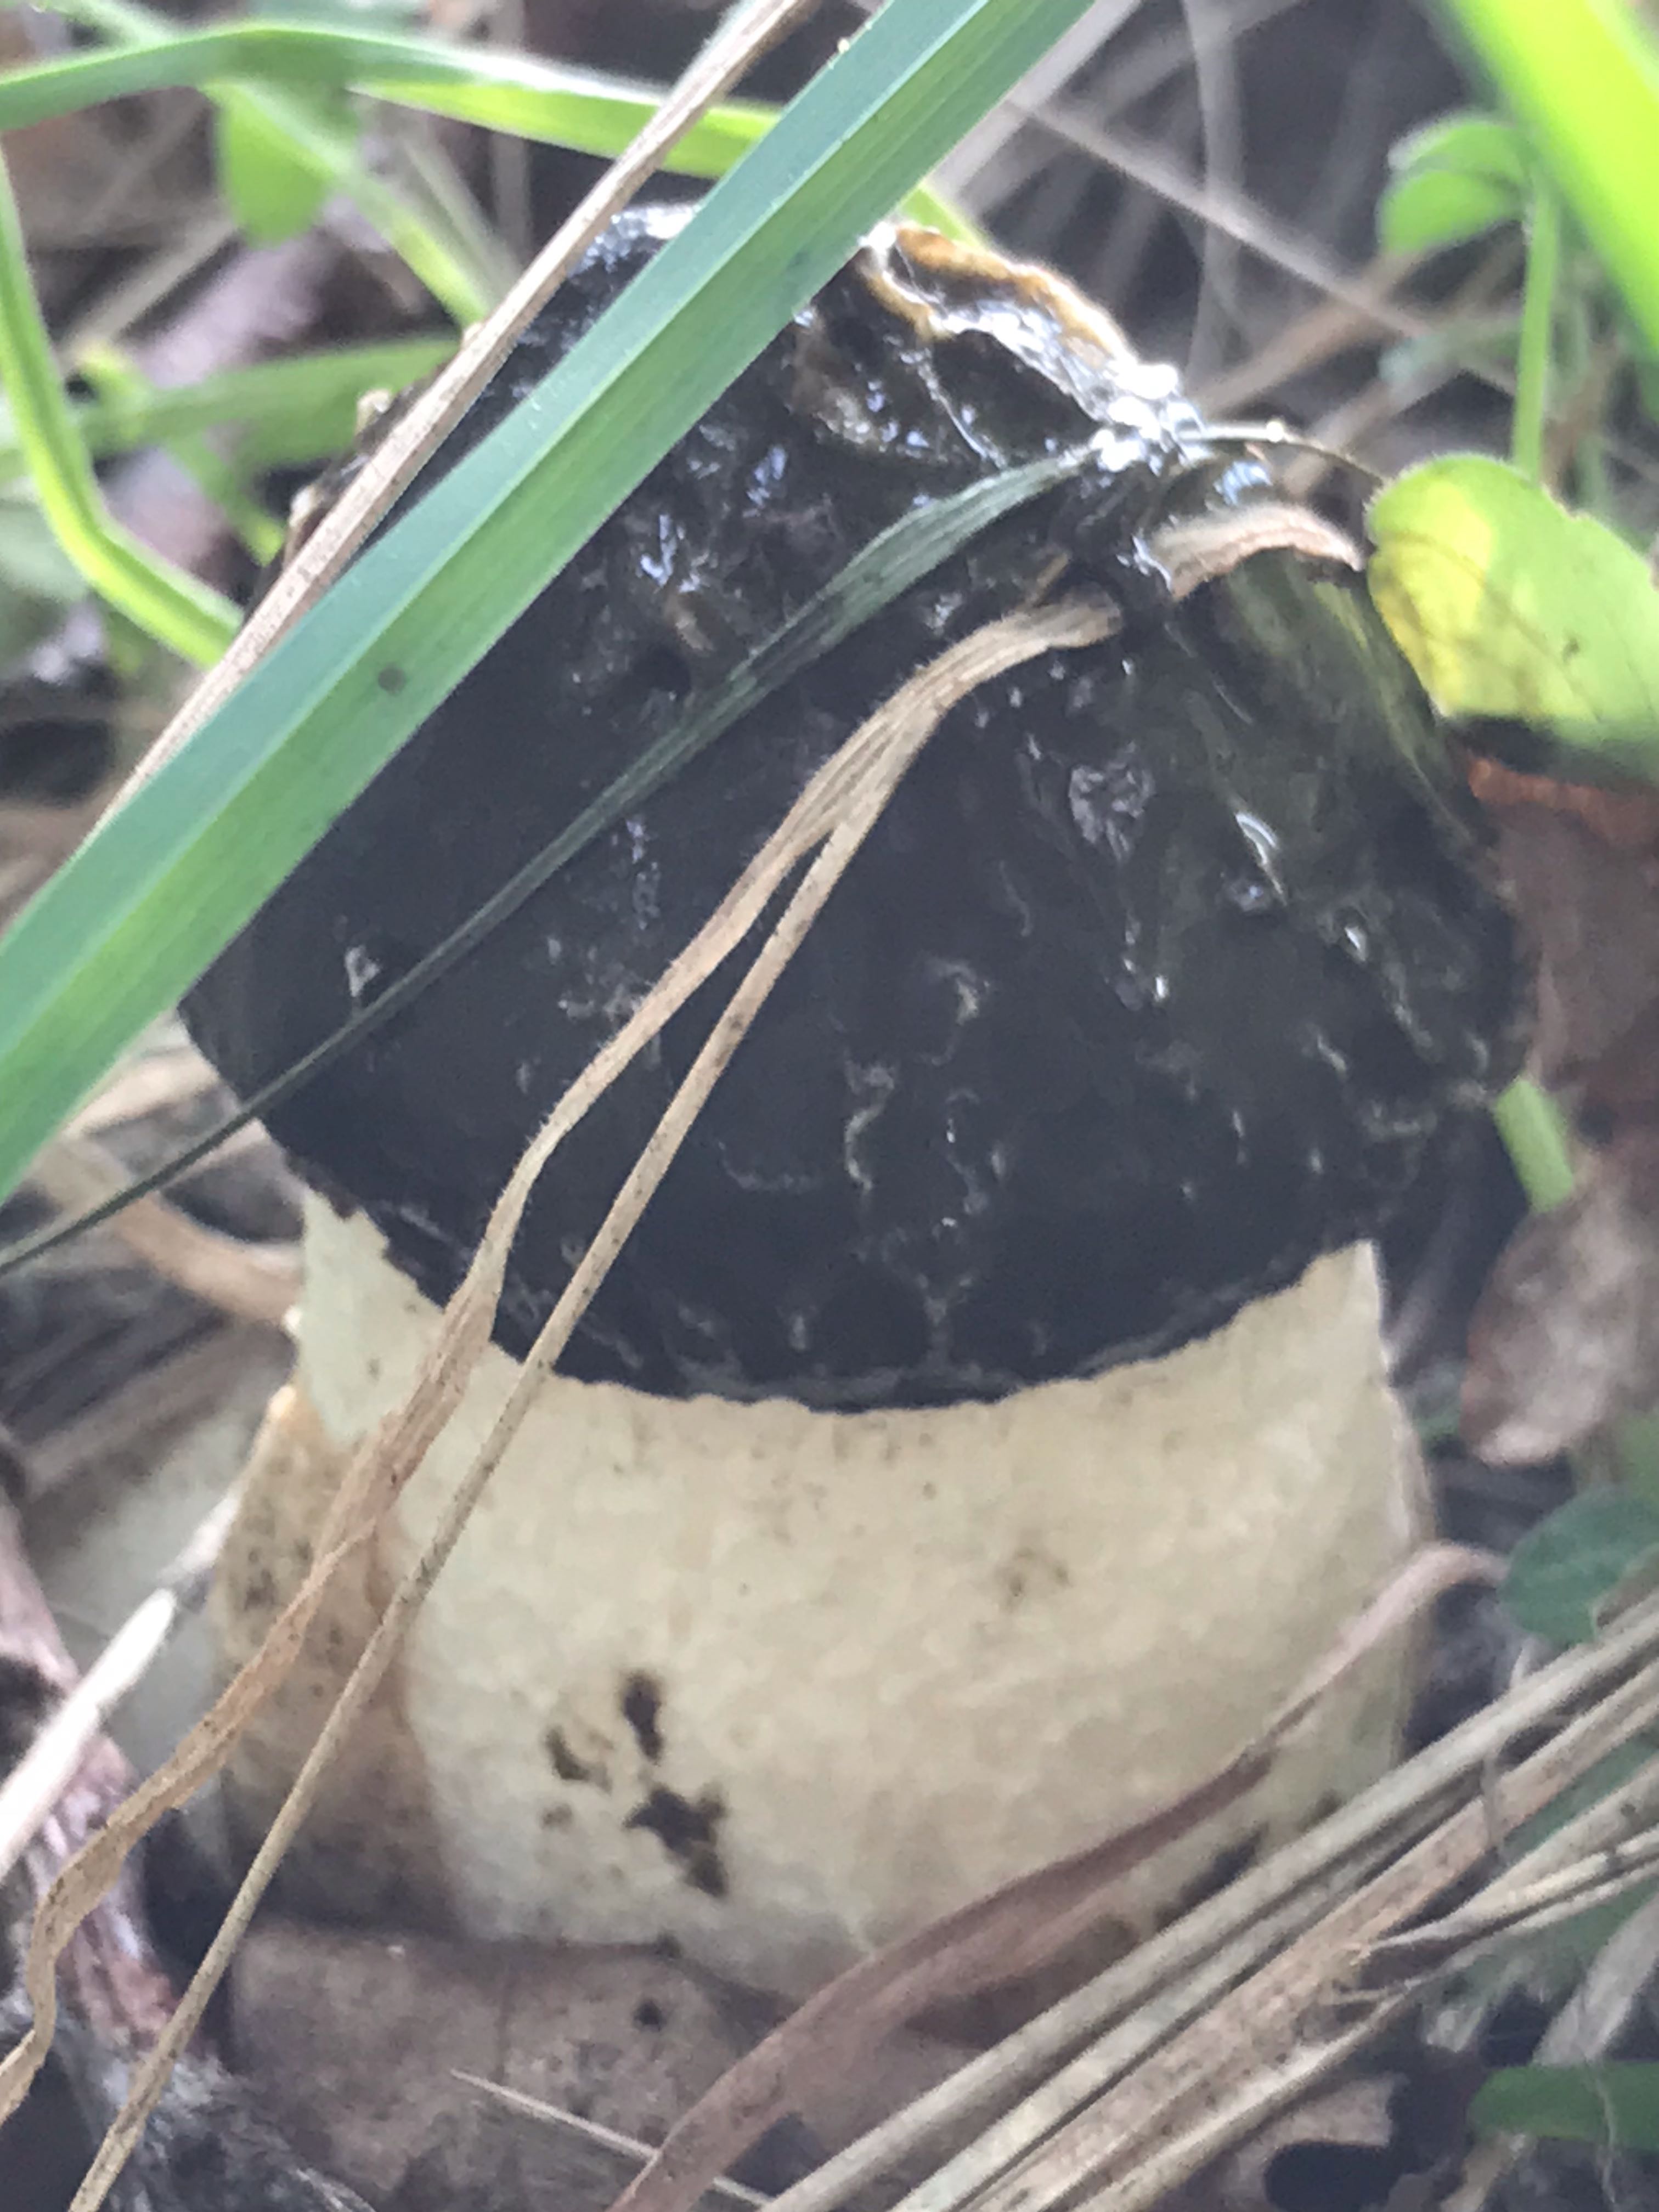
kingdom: Fungi
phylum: Basidiomycota
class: Agaricomycetes
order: Phallales
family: Phallaceae
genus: Phallus
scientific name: Phallus impudicus
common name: almindelig stinksvamp
